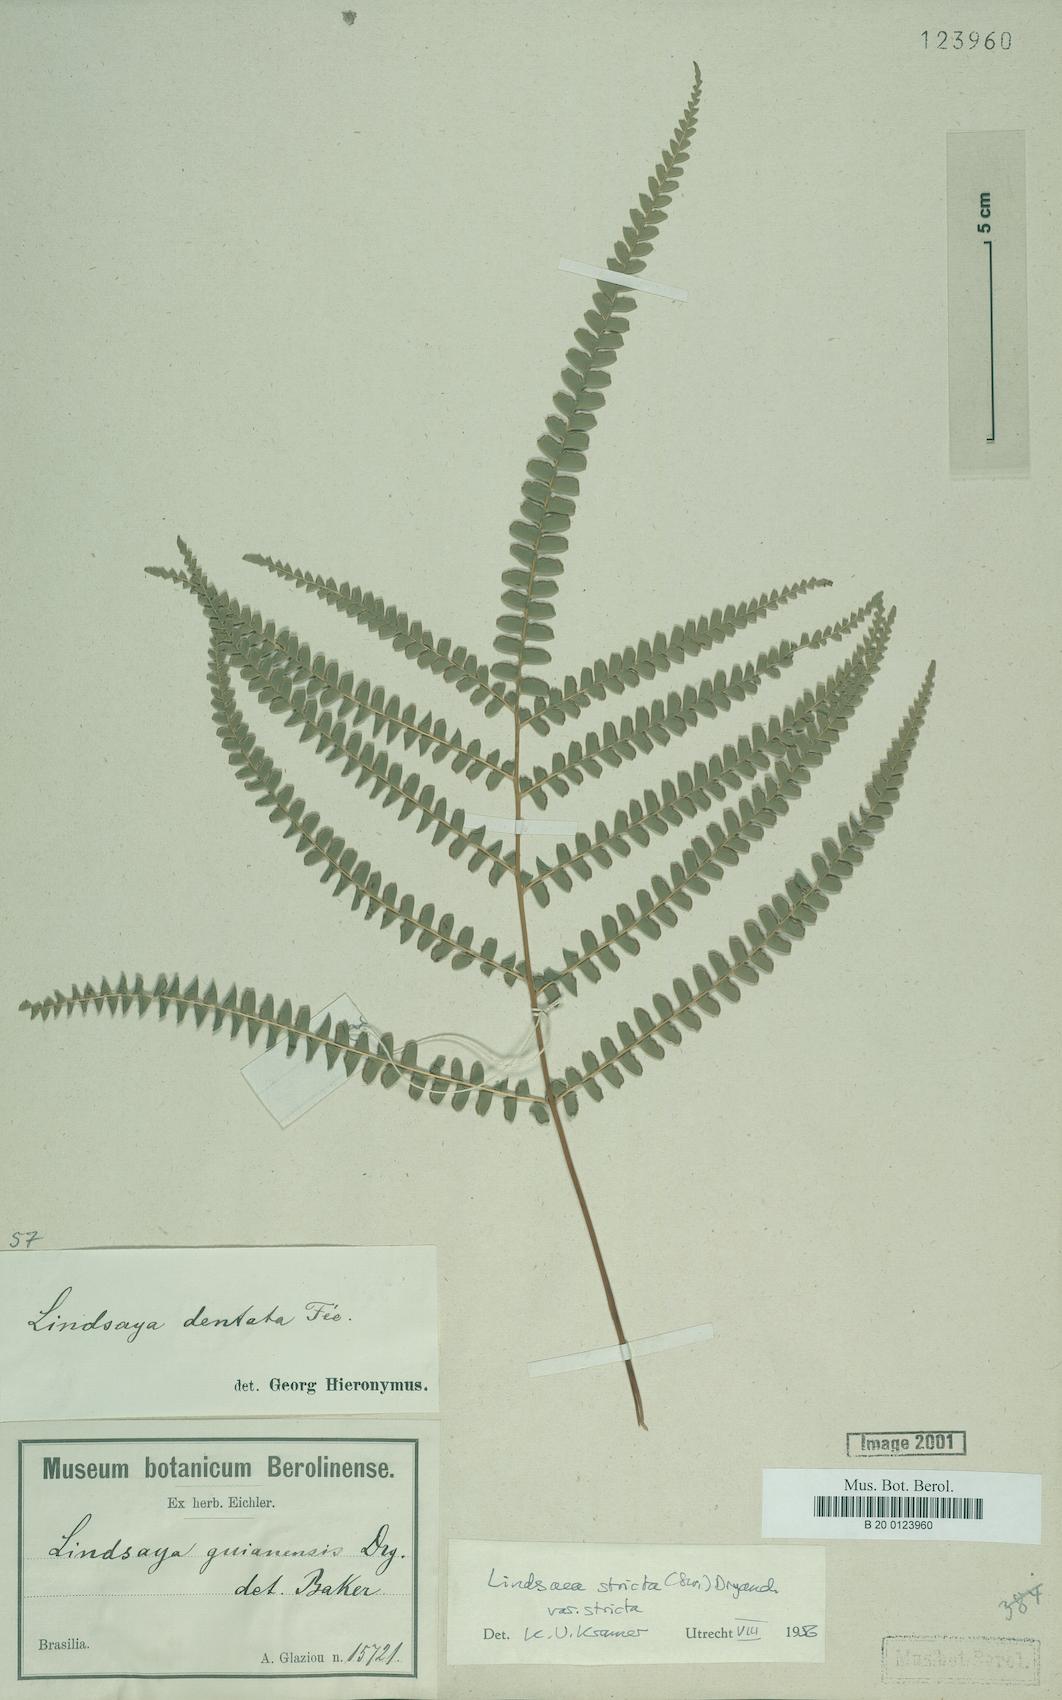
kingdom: Plantae
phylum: Tracheophyta
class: Polypodiopsida
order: Polypodiales
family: Lindsaeaceae
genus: Lindsaea
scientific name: Lindsaea stricta
